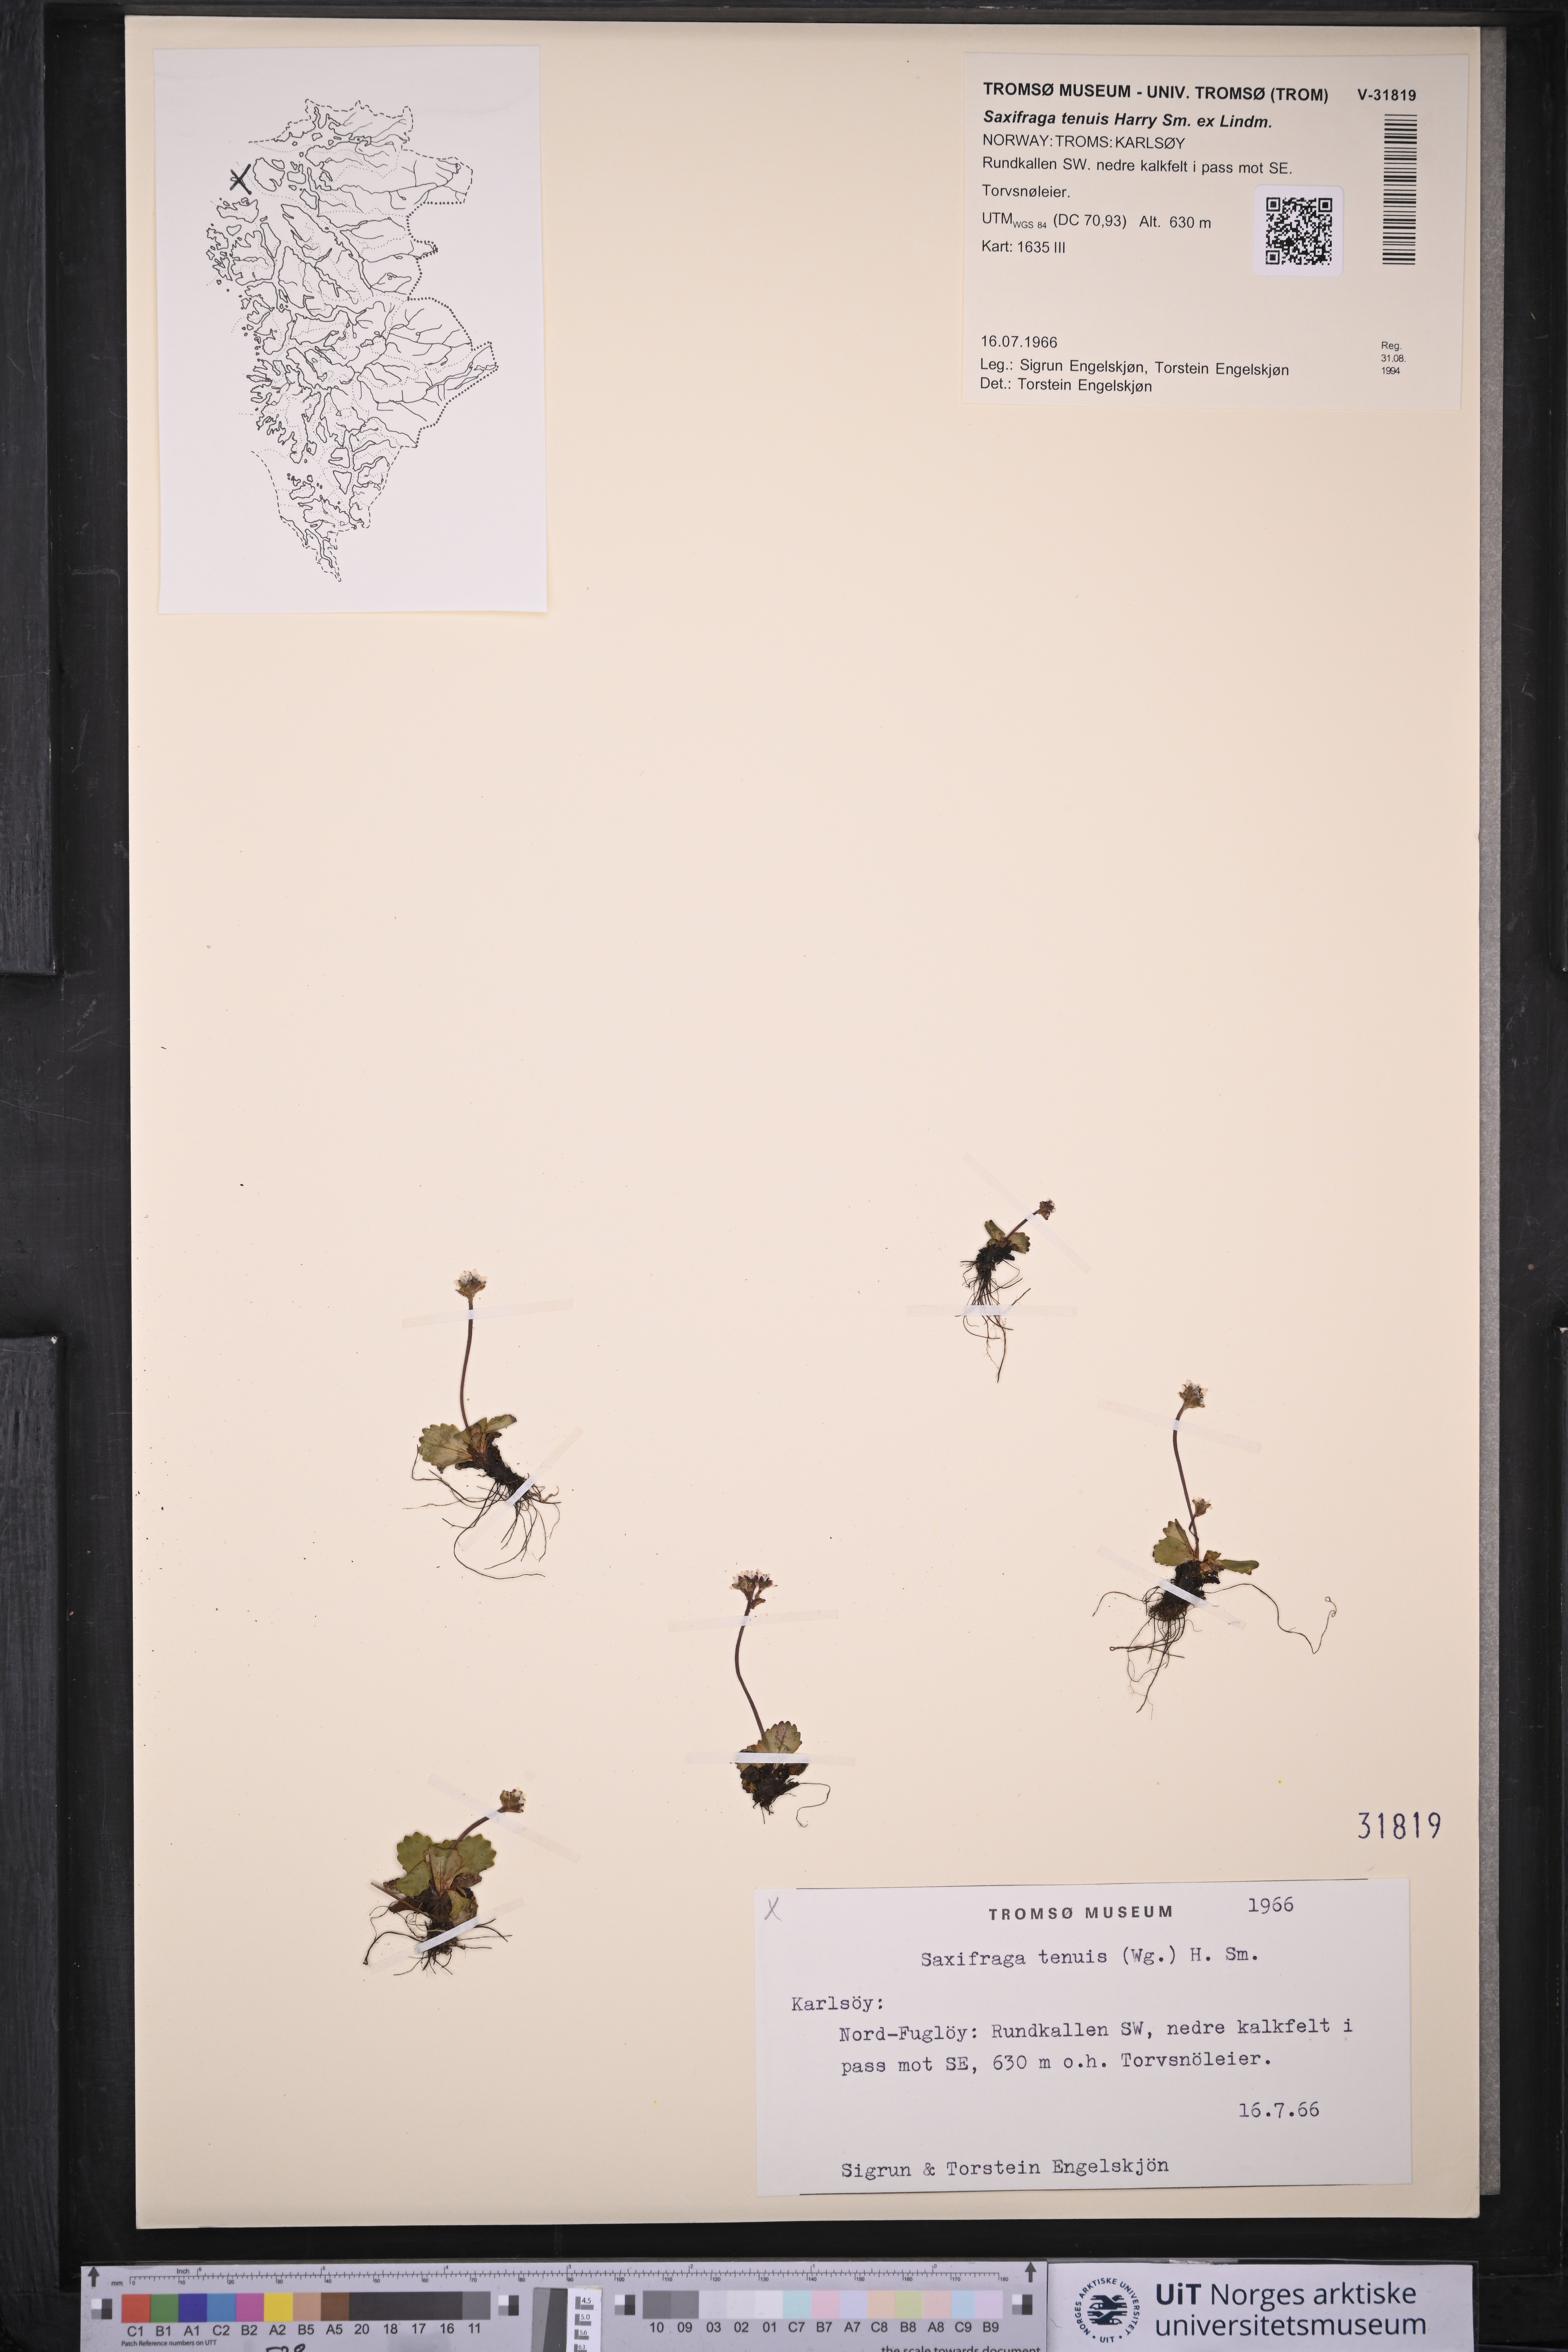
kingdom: Plantae
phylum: Tracheophyta
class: Magnoliopsida
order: Saxifragales
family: Saxifragaceae
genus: Micranthes
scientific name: Micranthes tenuis
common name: Ottertail pass saxifrage
